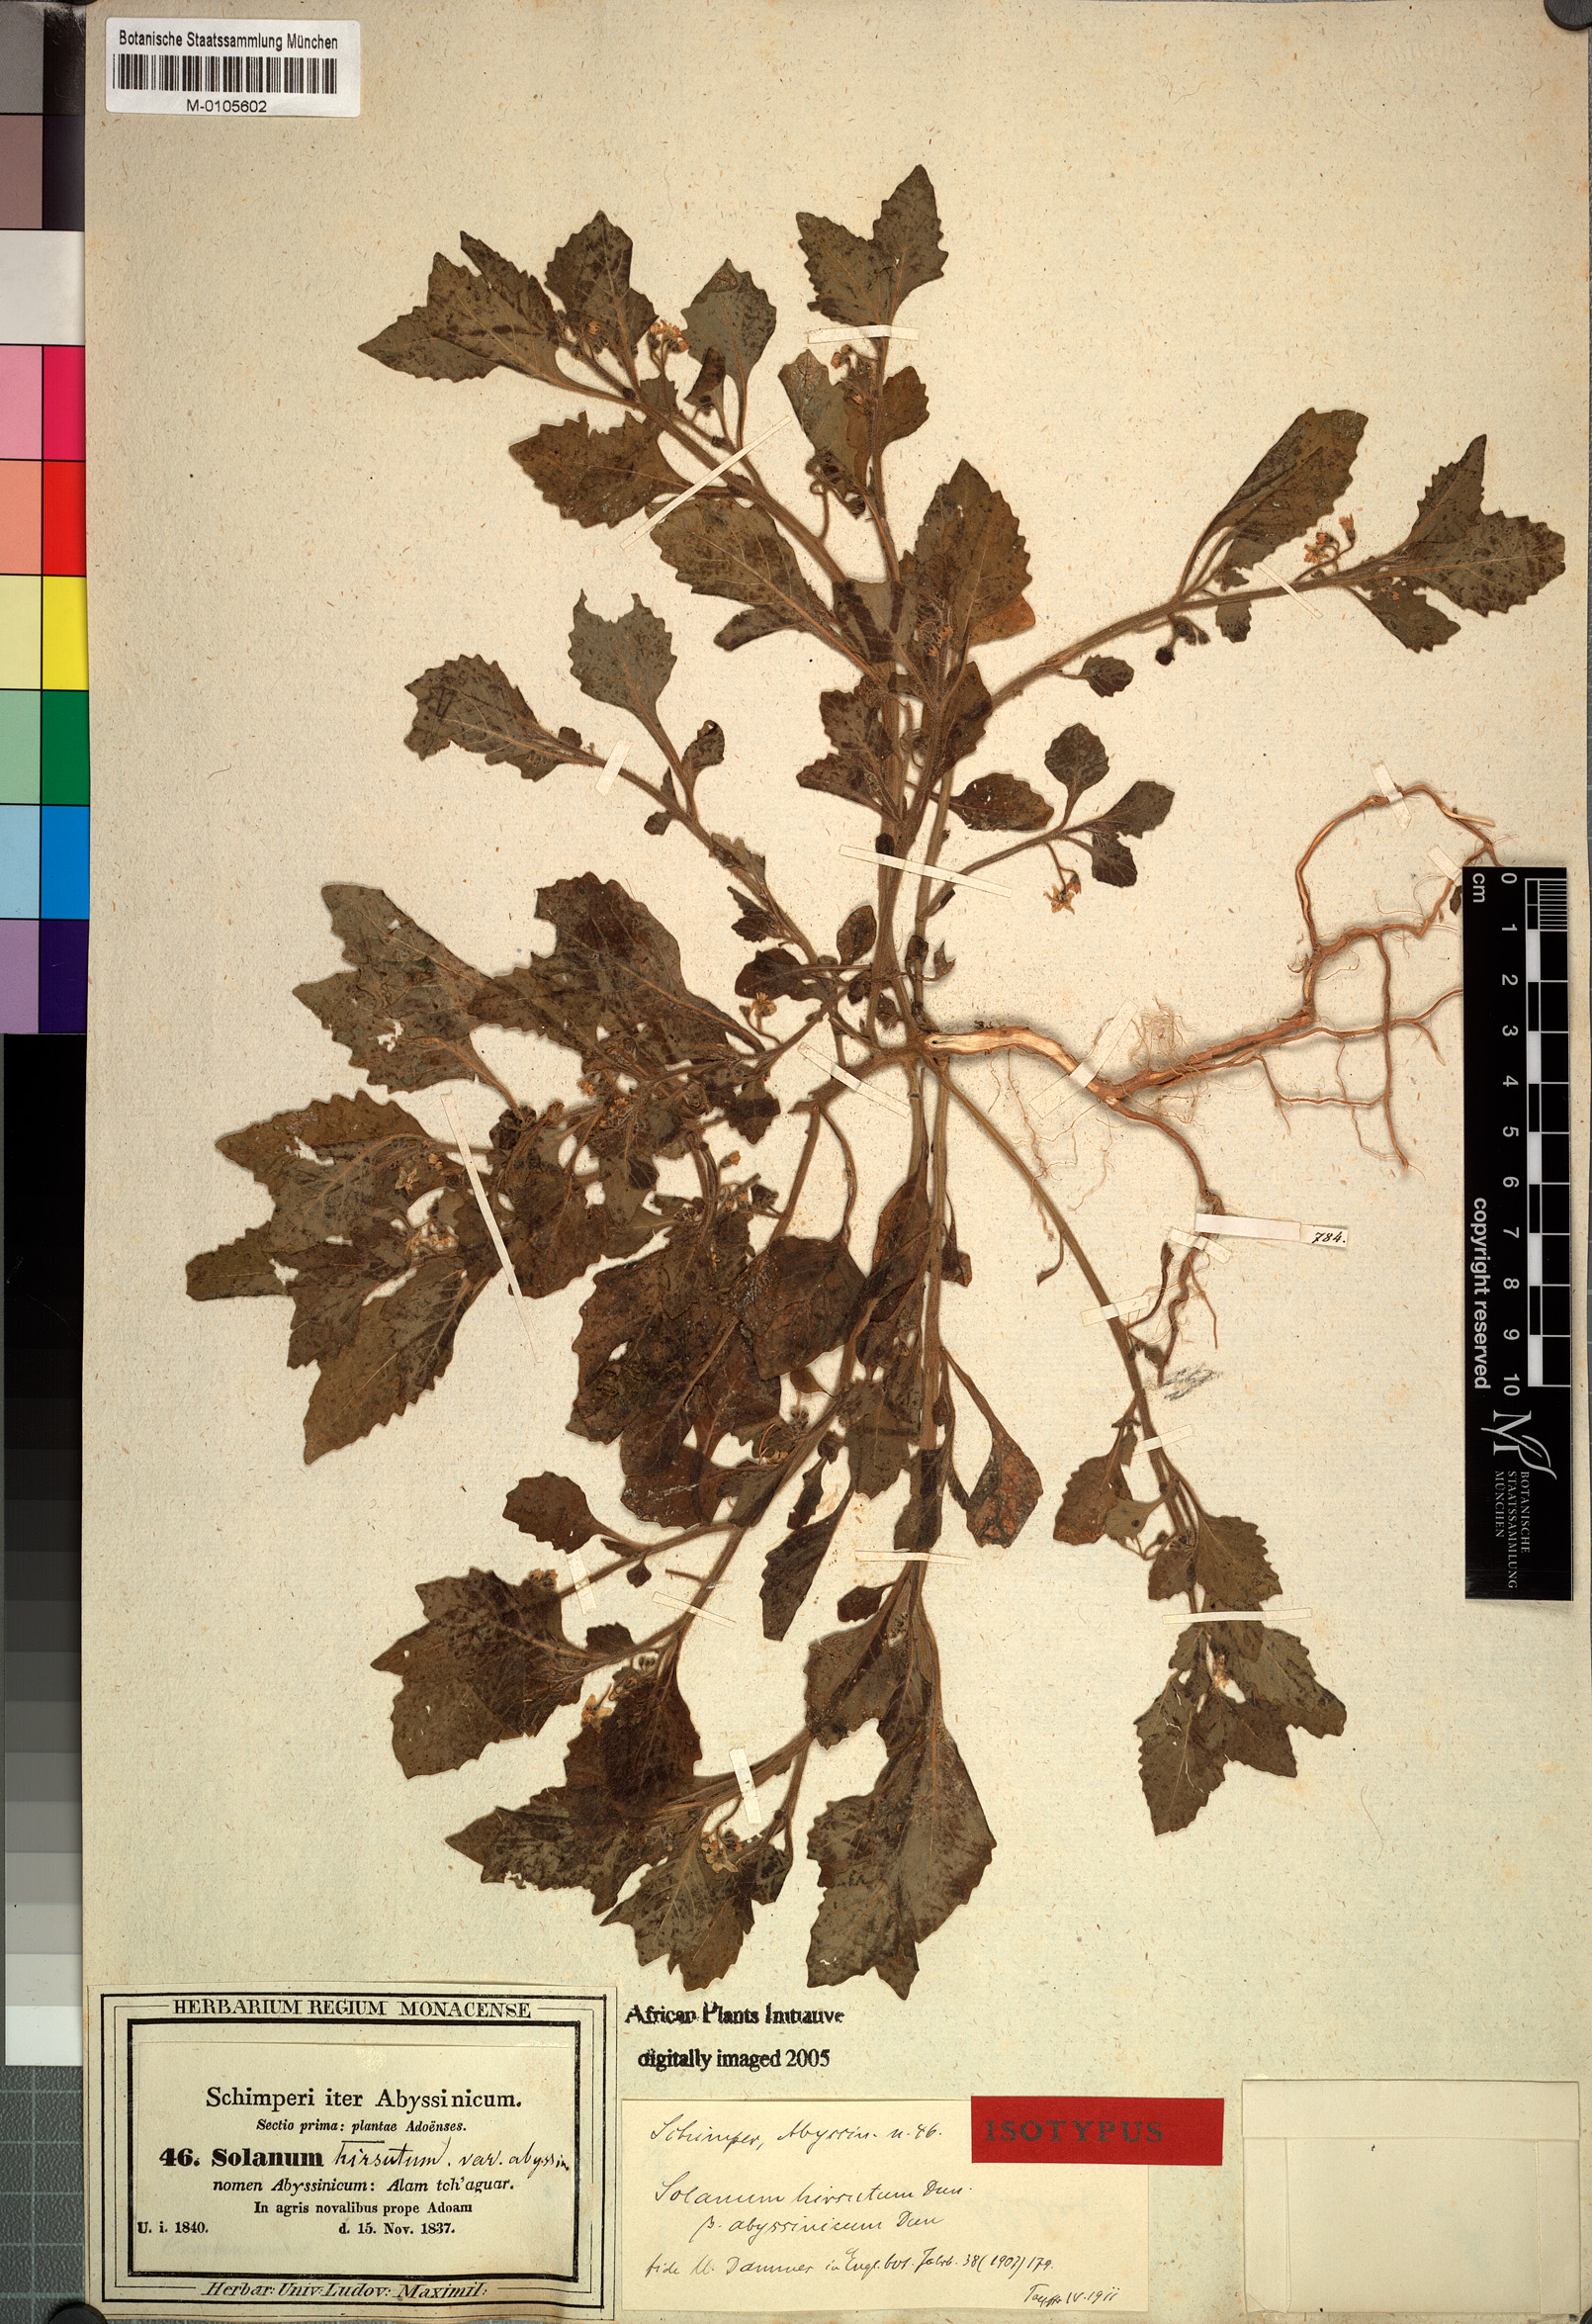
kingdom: Plantae
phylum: Tracheophyta
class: Magnoliopsida
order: Solanales
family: Solanaceae
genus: Solanum
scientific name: Solanum memphiticum
